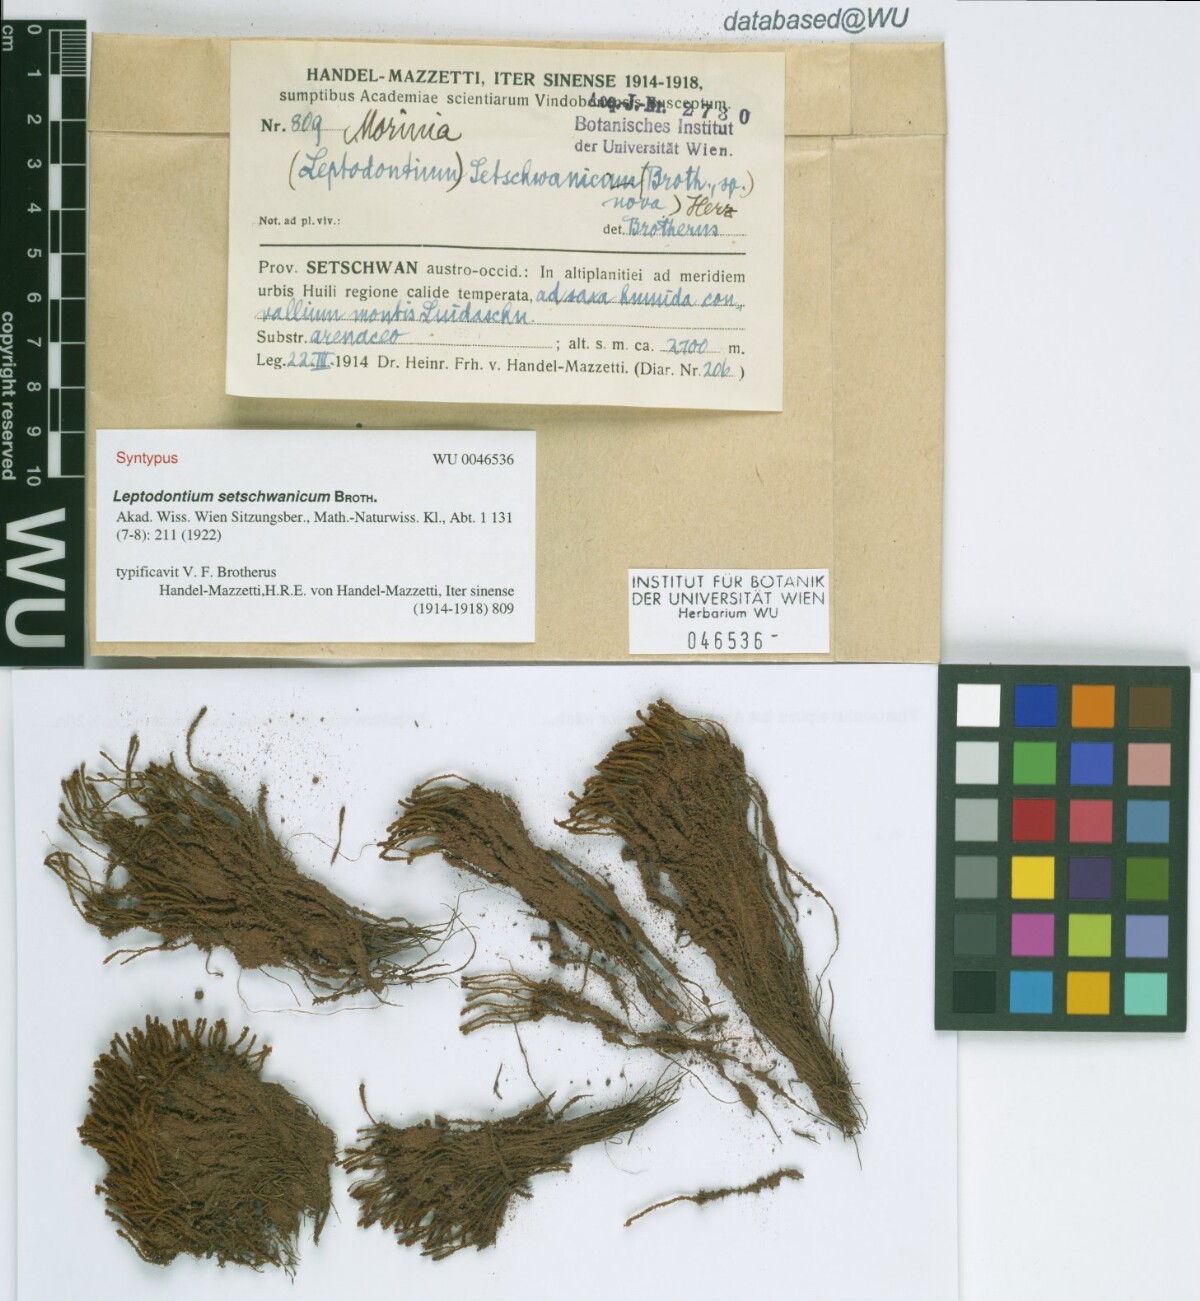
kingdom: Plantae
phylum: Bryophyta
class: Bryopsida
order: Pottiales
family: Pottiaceae
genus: Geheebia
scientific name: Geheebia erosodenticulata
